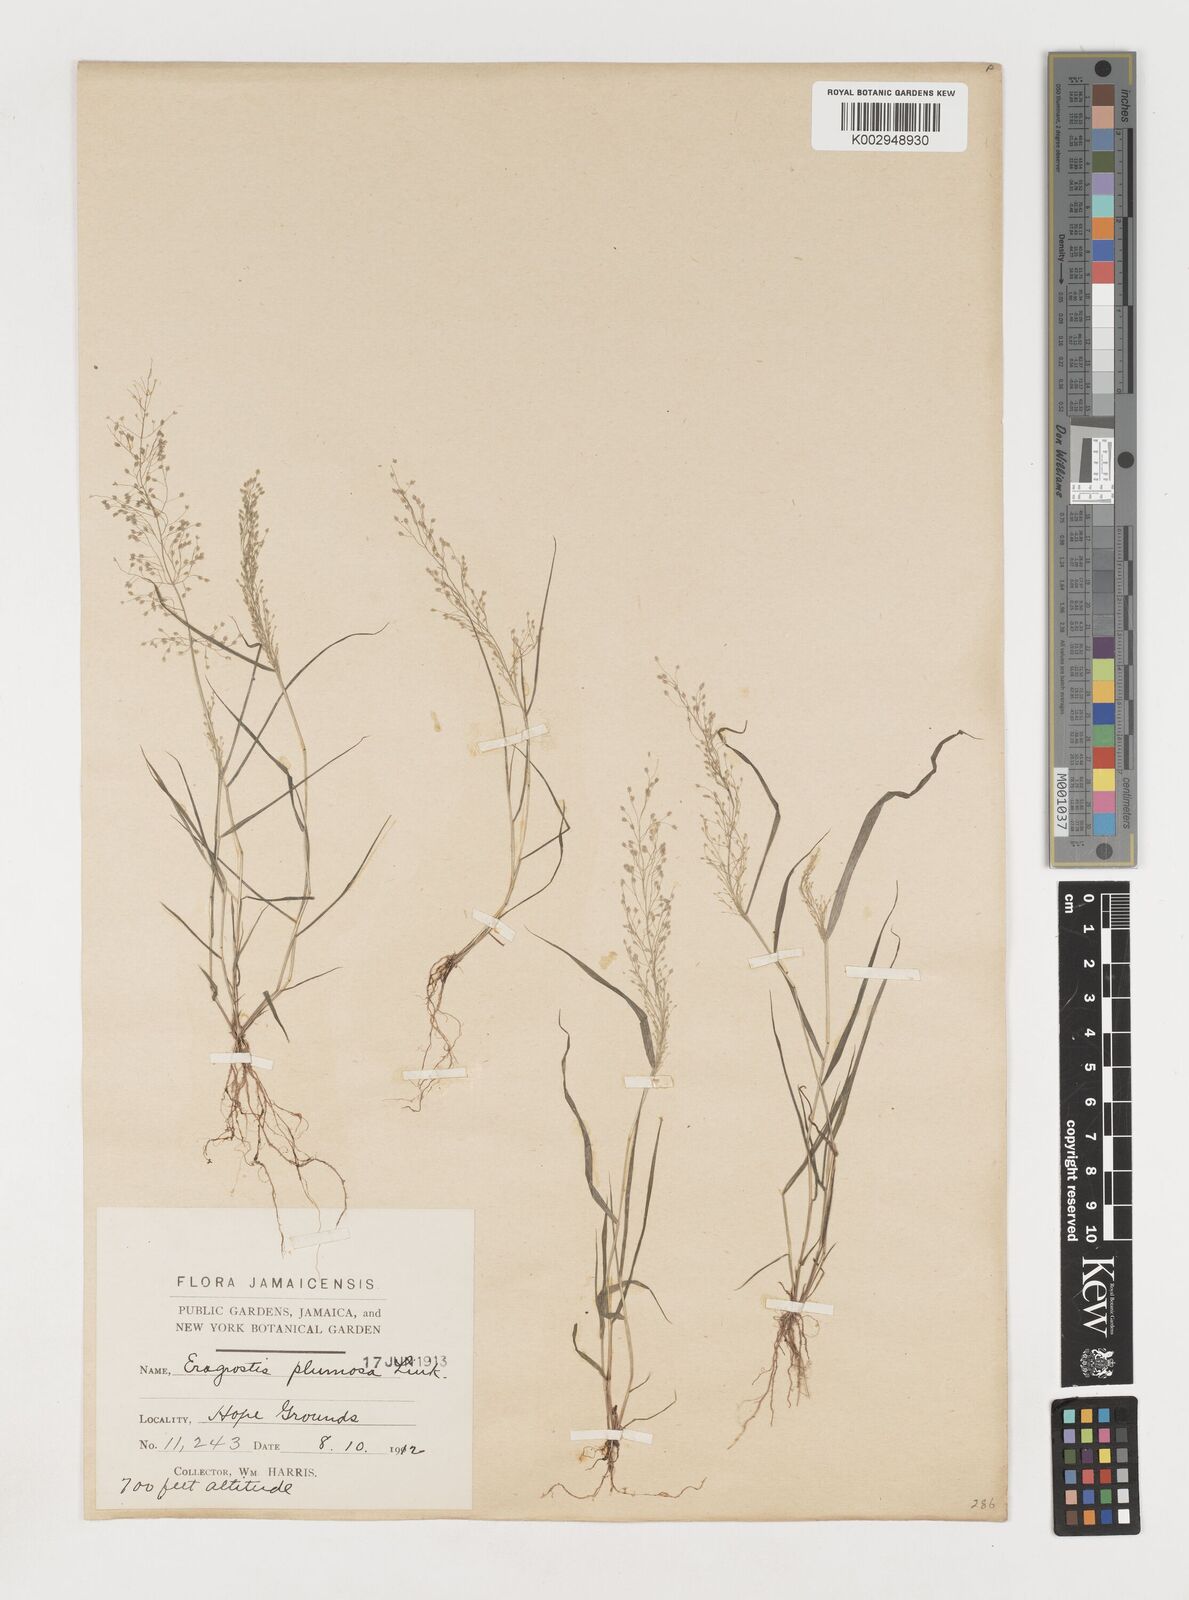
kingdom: Plantae
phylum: Tracheophyta
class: Liliopsida
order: Poales
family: Poaceae
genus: Eragrostis
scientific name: Eragrostis tenella
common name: Japanese lovegrass
